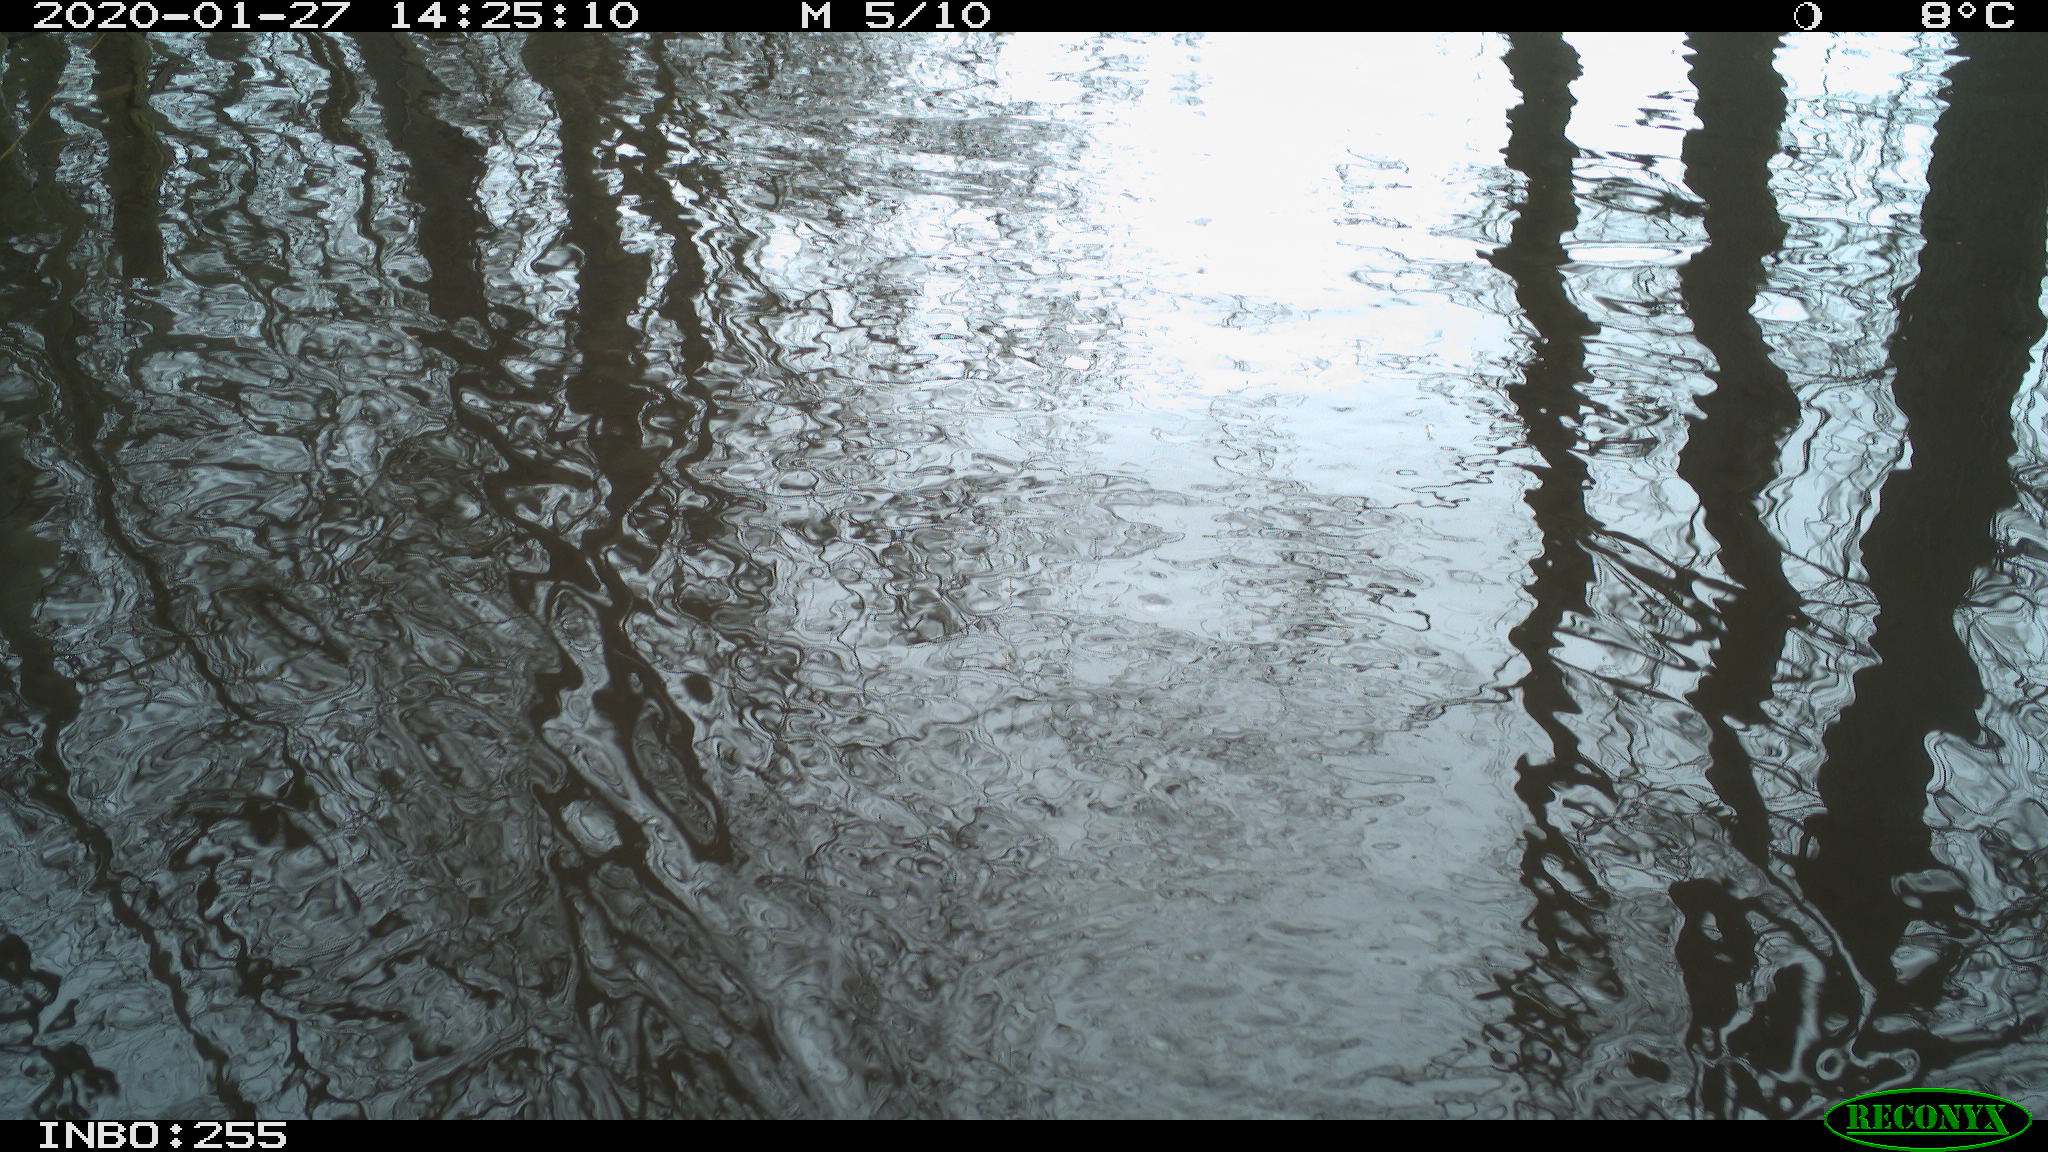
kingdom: Animalia
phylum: Chordata
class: Aves
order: Gruiformes
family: Rallidae
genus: Fulica
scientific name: Fulica atra
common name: Eurasian coot
